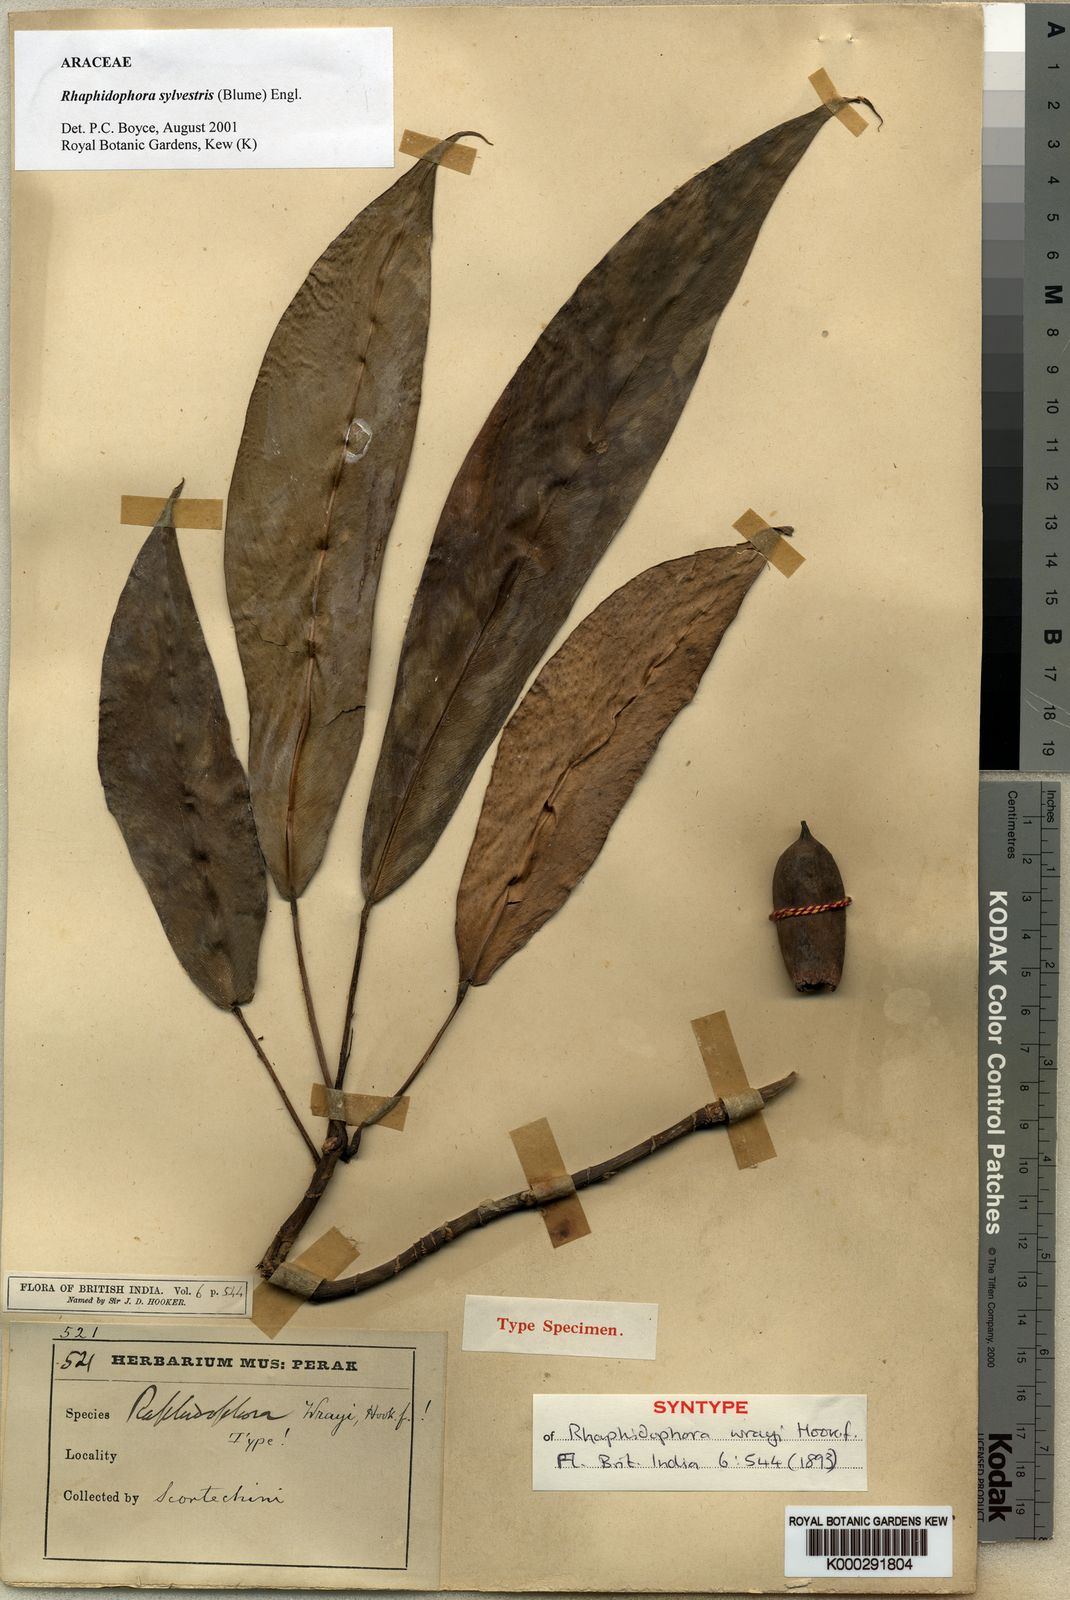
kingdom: Plantae
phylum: Tracheophyta
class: Liliopsida
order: Alismatales
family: Araceae
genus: Rhaphidophora
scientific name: Rhaphidophora sylvestris
